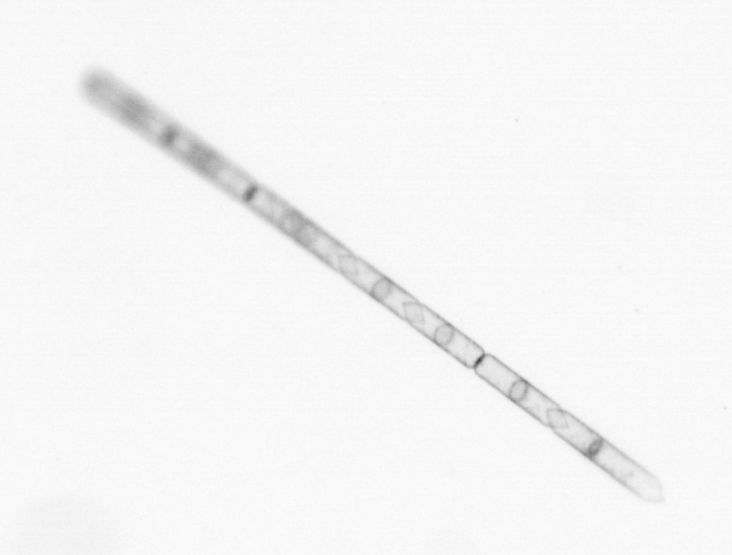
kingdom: Chromista
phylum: Ochrophyta
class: Bacillariophyceae
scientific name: Bacillariophyceae
